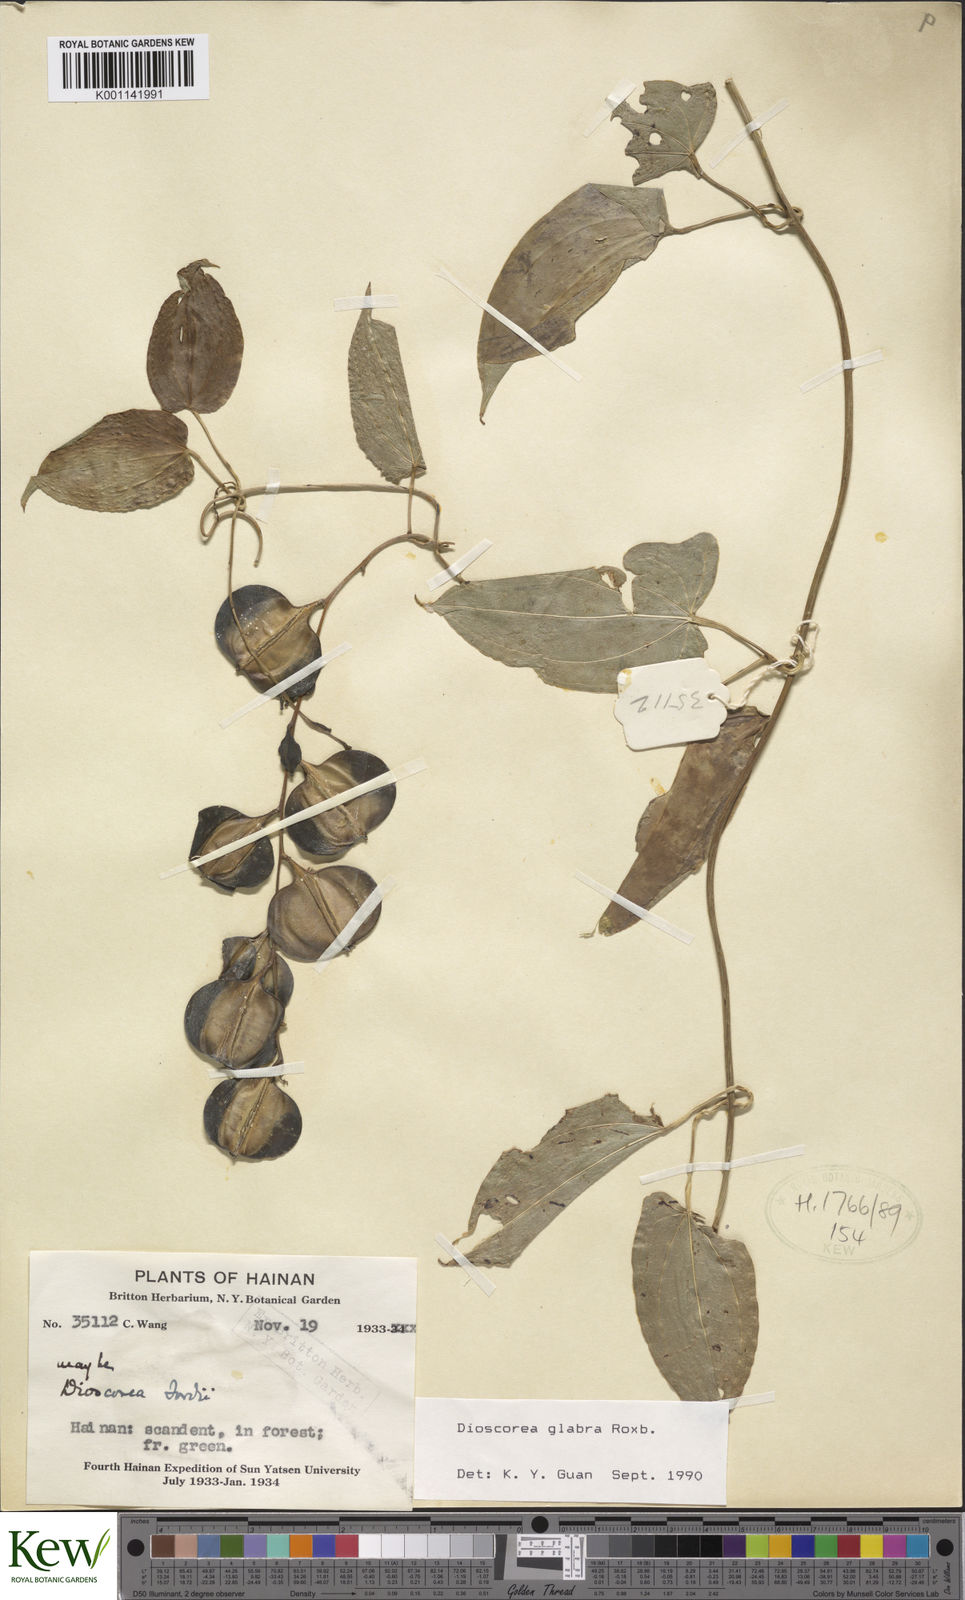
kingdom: Plantae
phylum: Tracheophyta
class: Liliopsida
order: Dioscoreales
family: Dioscoreaceae
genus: Dioscorea
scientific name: Dioscorea glabra
